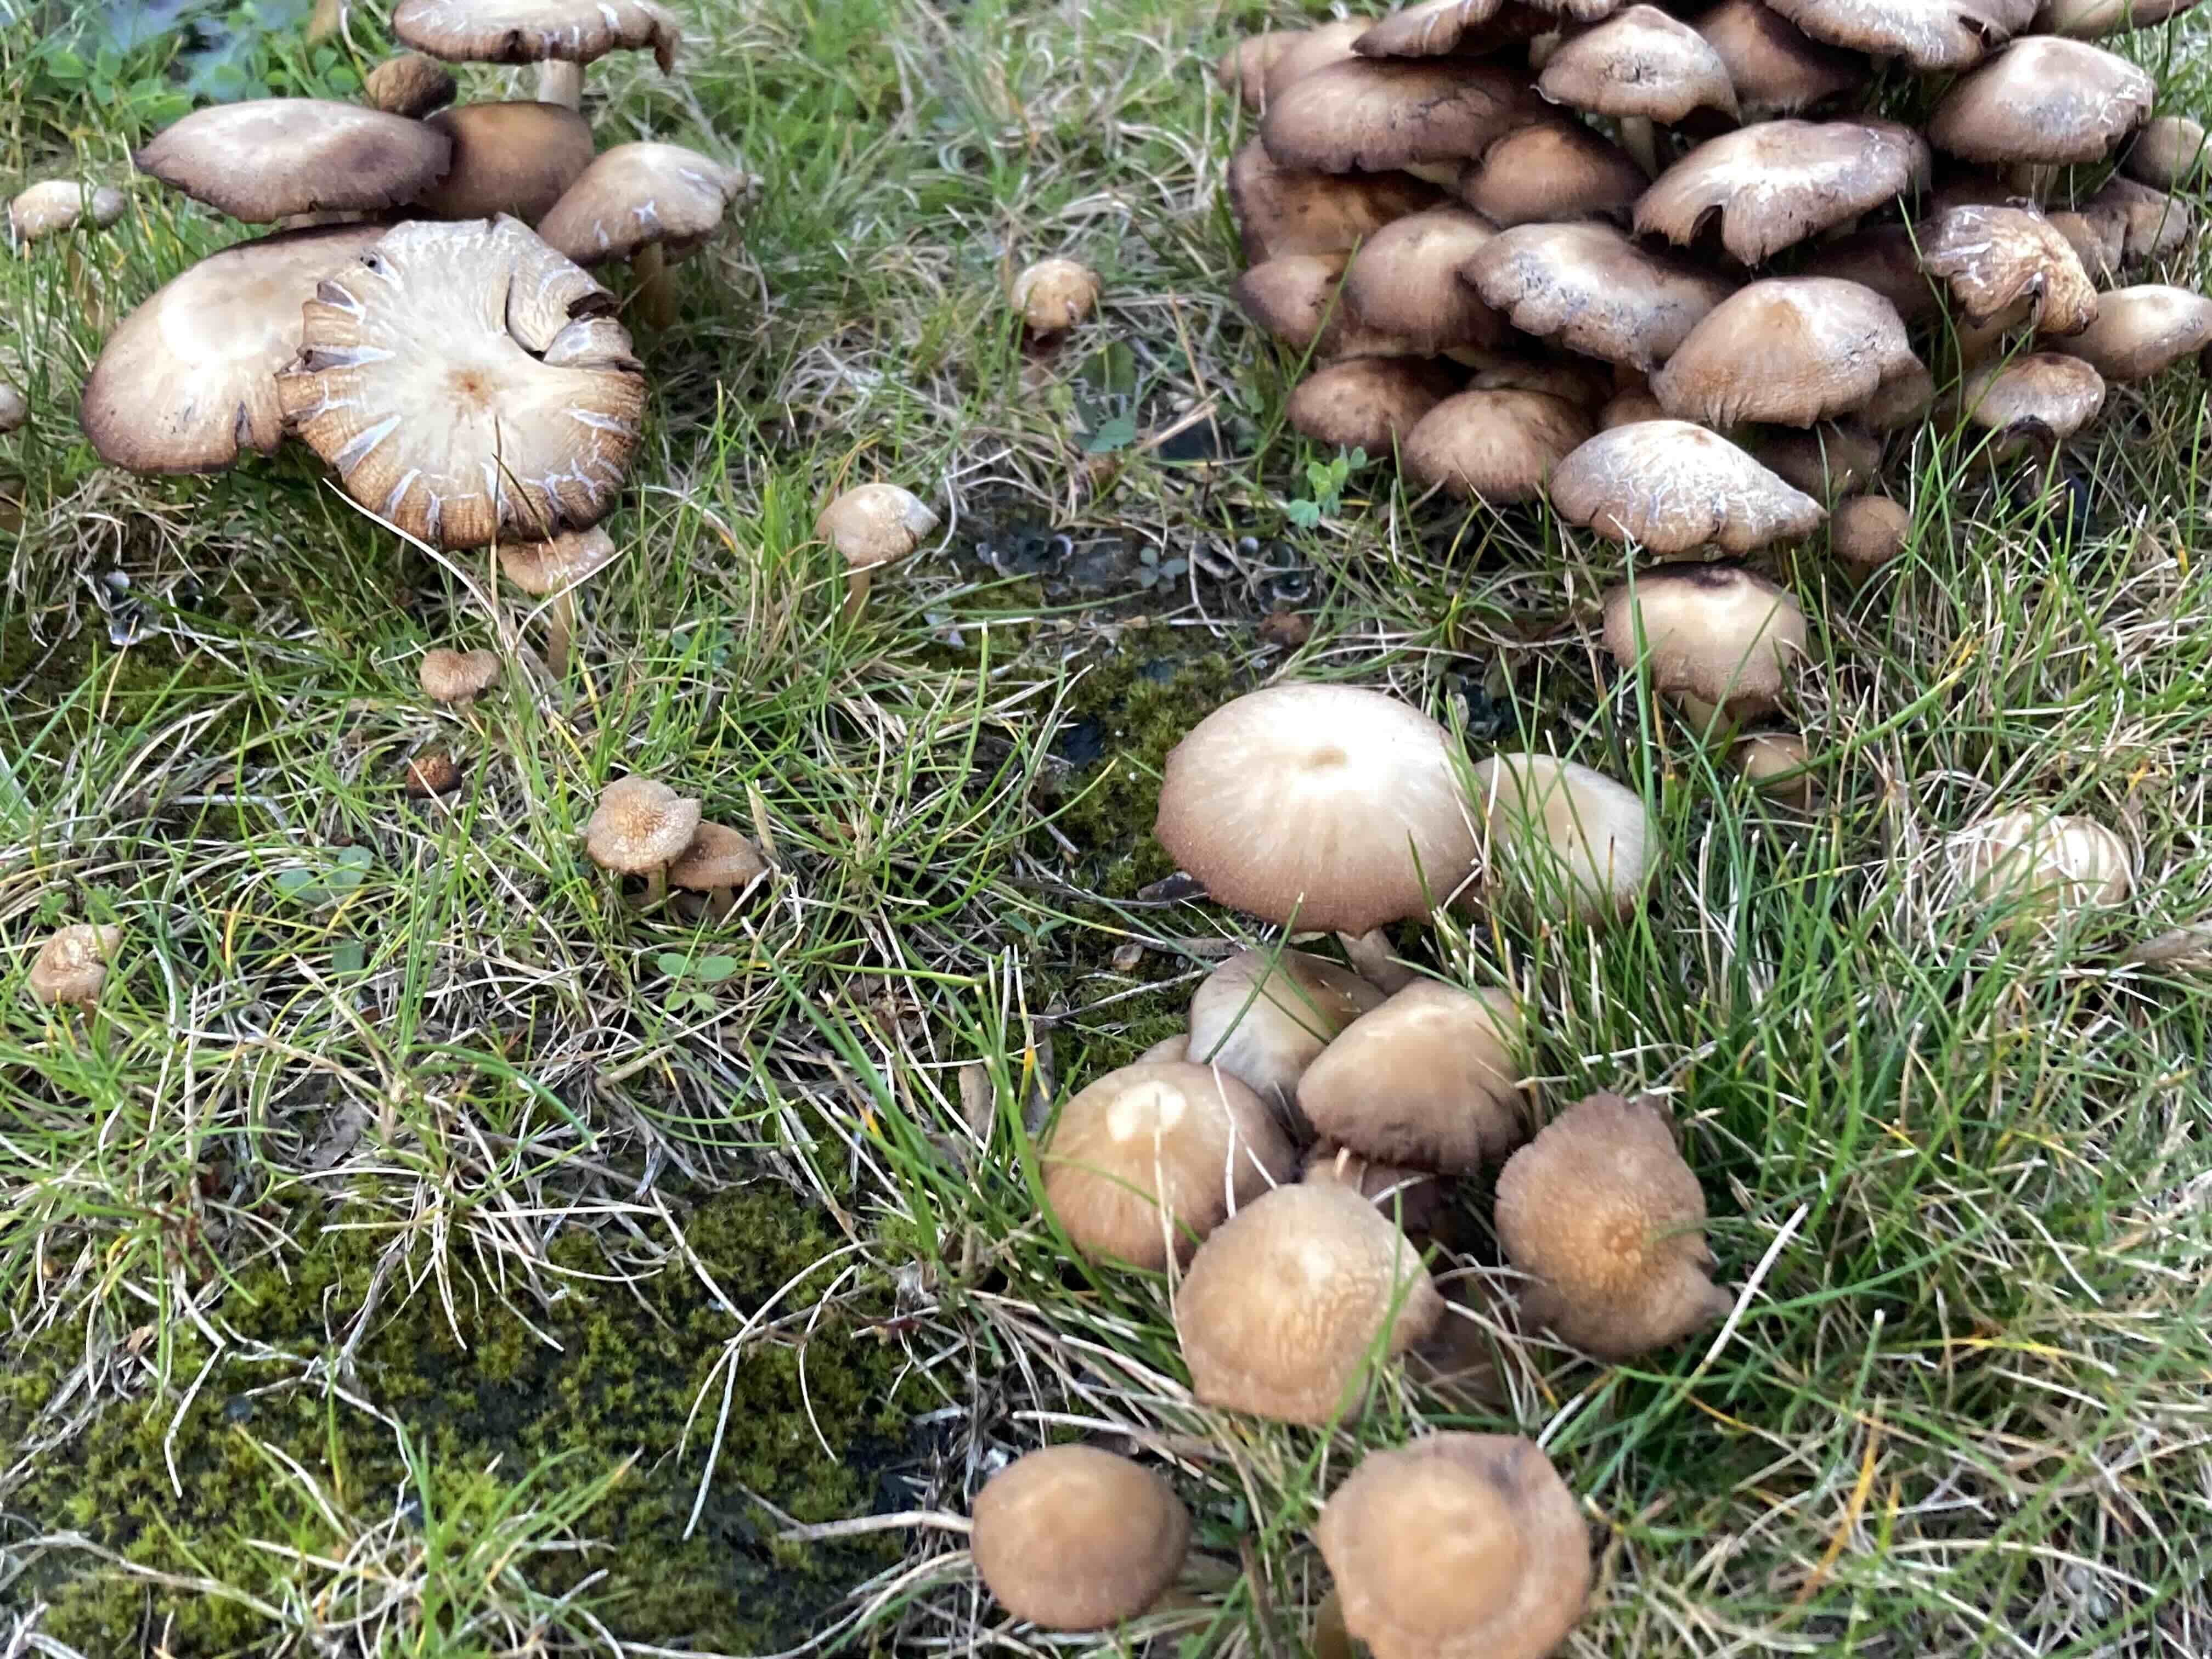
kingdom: Fungi
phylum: Basidiomycota
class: Agaricomycetes
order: Agaricales
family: Psathyrellaceae
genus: Psathyrella
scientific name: Psathyrella
